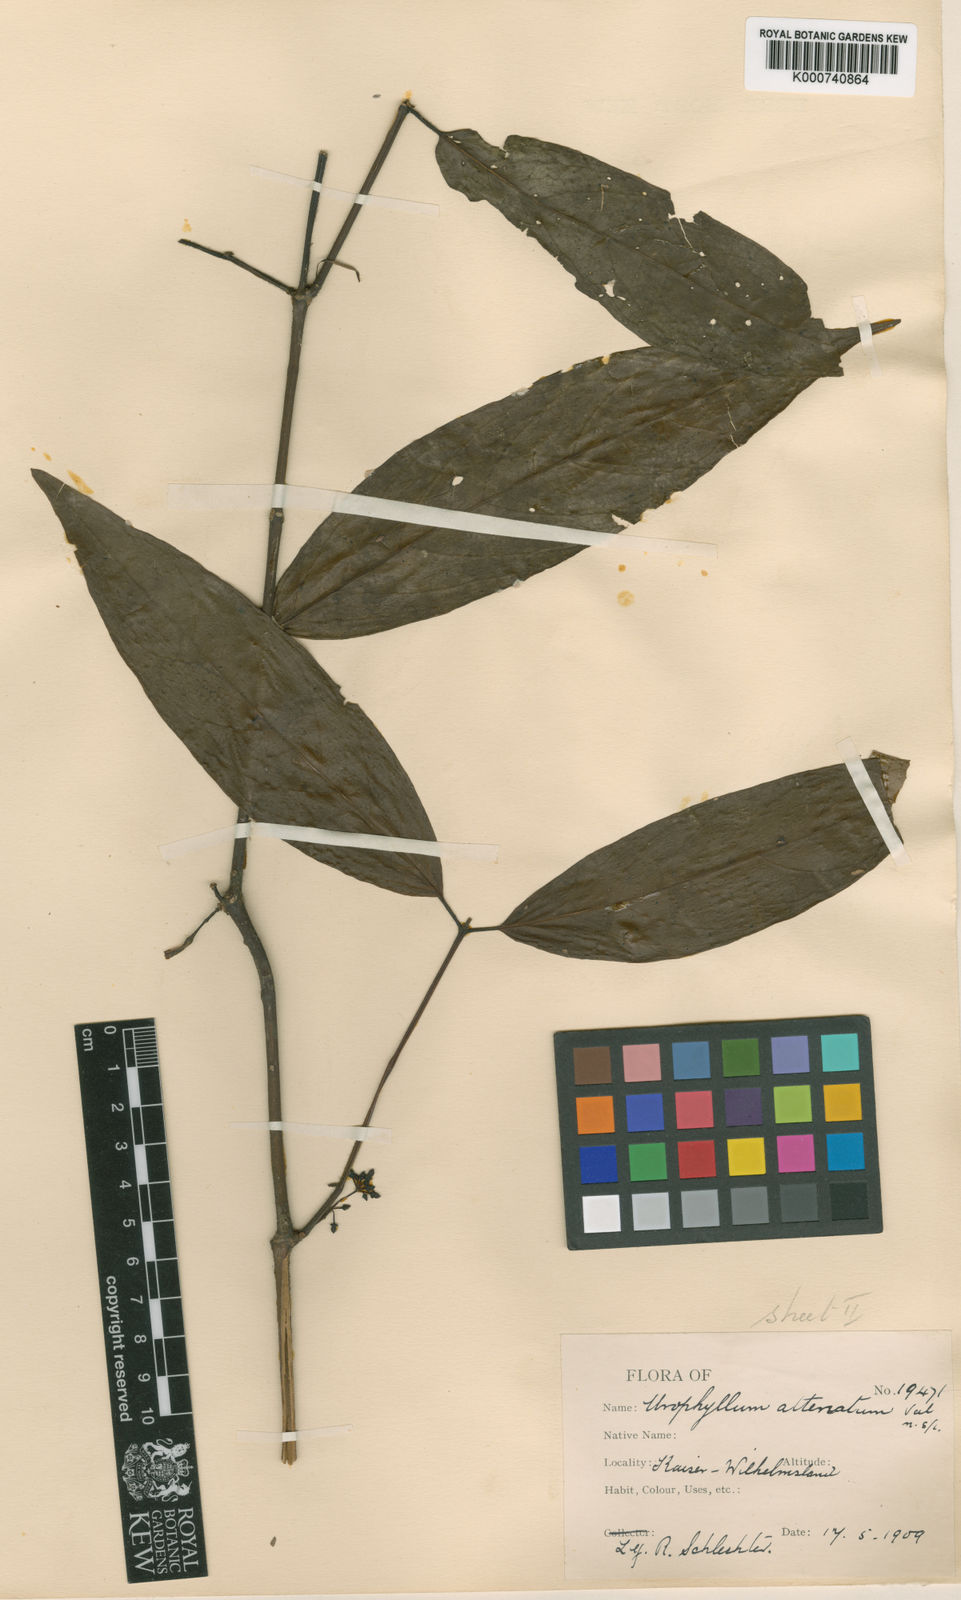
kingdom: Plantae
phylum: Tracheophyta
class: Magnoliopsida
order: Gentianales
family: Rubiaceae
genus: Urophyllum
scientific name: Urophyllum attenuatum
